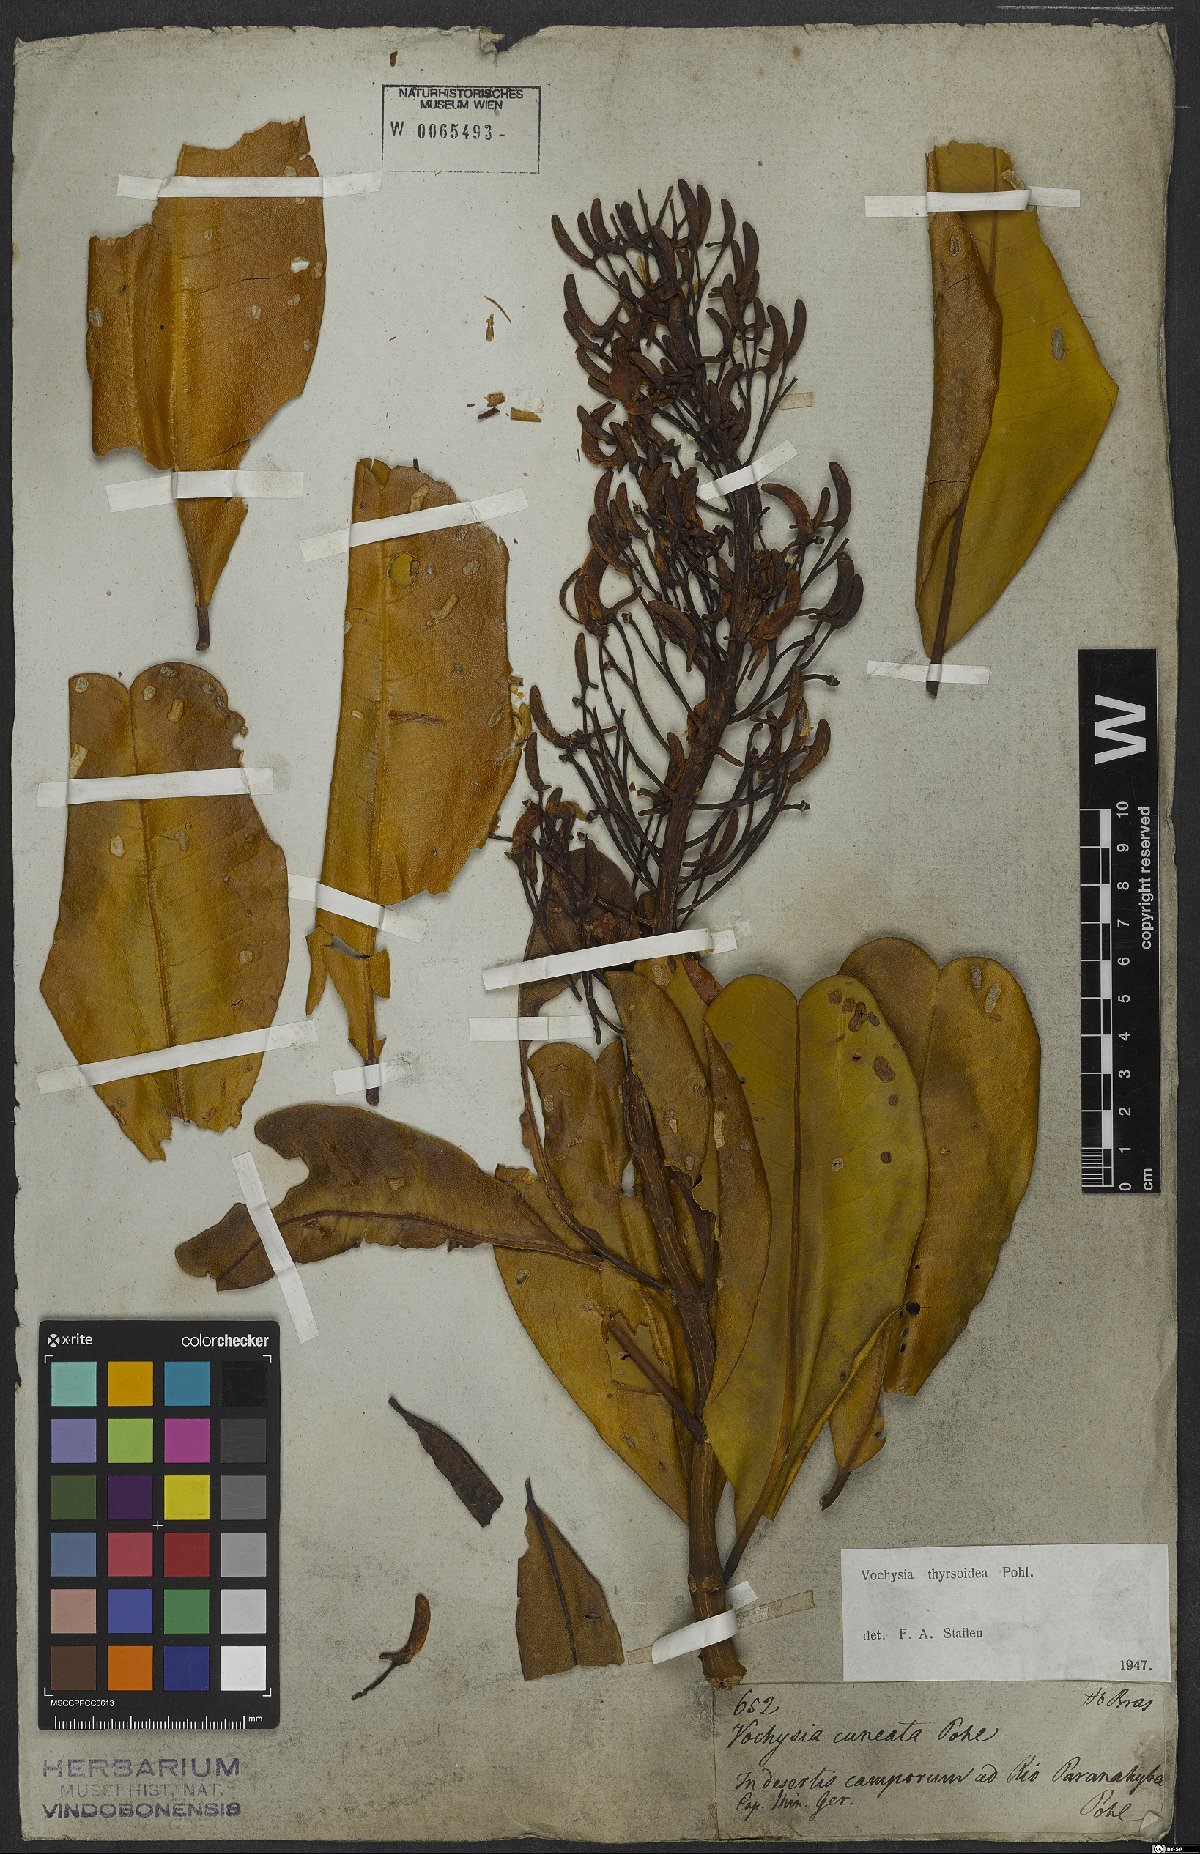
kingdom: Plantae
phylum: Tracheophyta
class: Magnoliopsida
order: Myrtales
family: Vochysiaceae
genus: Vochysia
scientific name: Vochysia thyrsoidea
